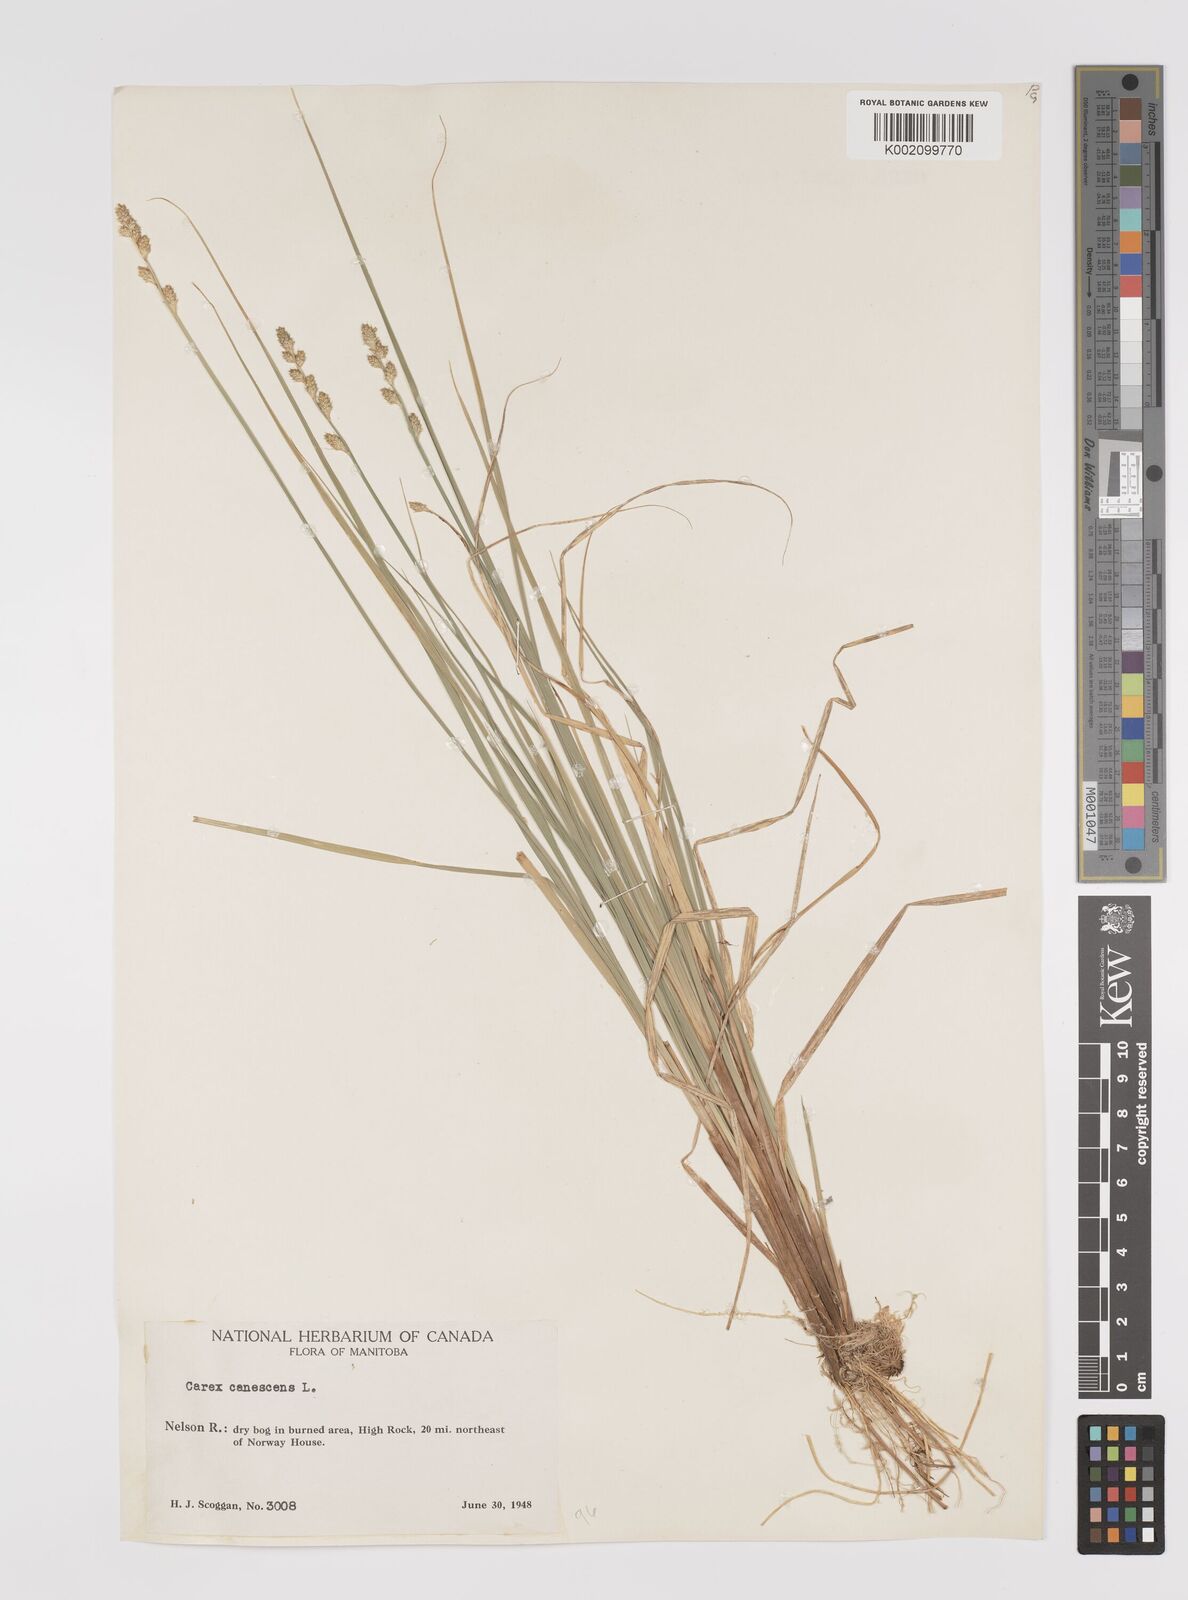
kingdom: Plantae
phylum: Tracheophyta
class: Liliopsida
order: Poales
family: Cyperaceae
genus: Carex
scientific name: Carex curta
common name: White sedge
